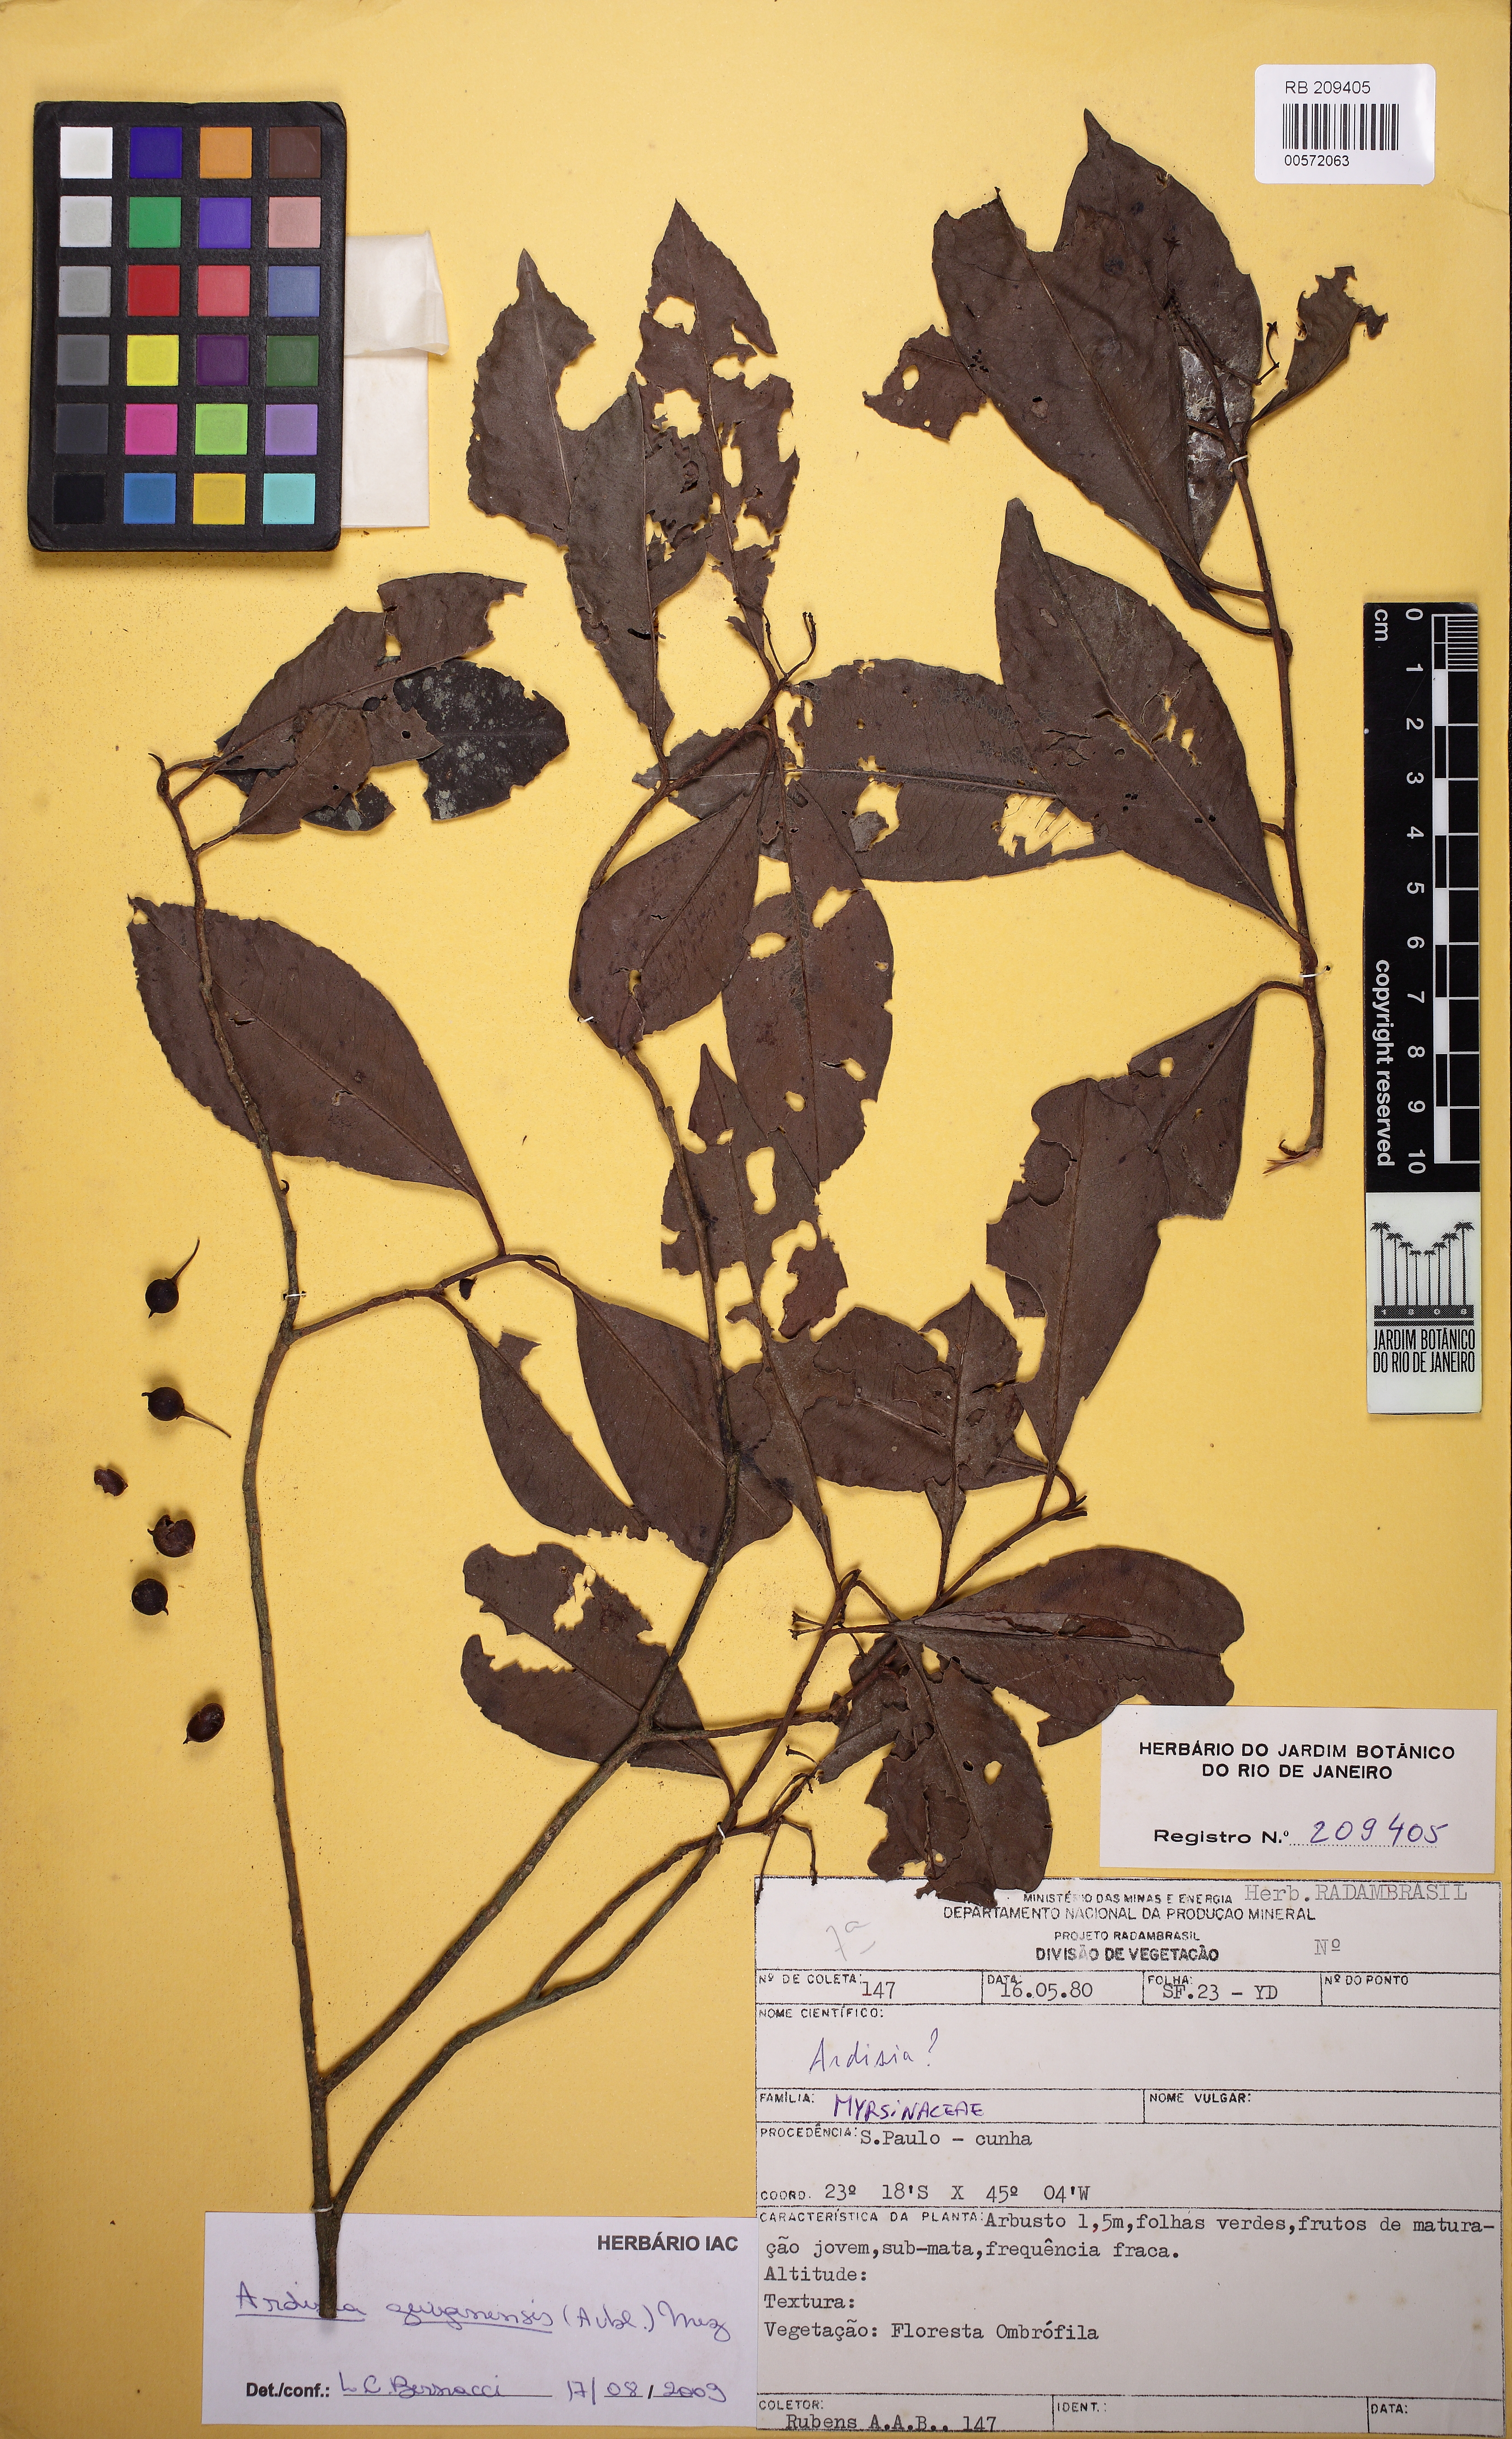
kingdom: Plantae
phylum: Tracheophyta
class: Magnoliopsida
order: Ericales
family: Primulaceae
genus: Stylogyne
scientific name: Stylogyne pauciflora
